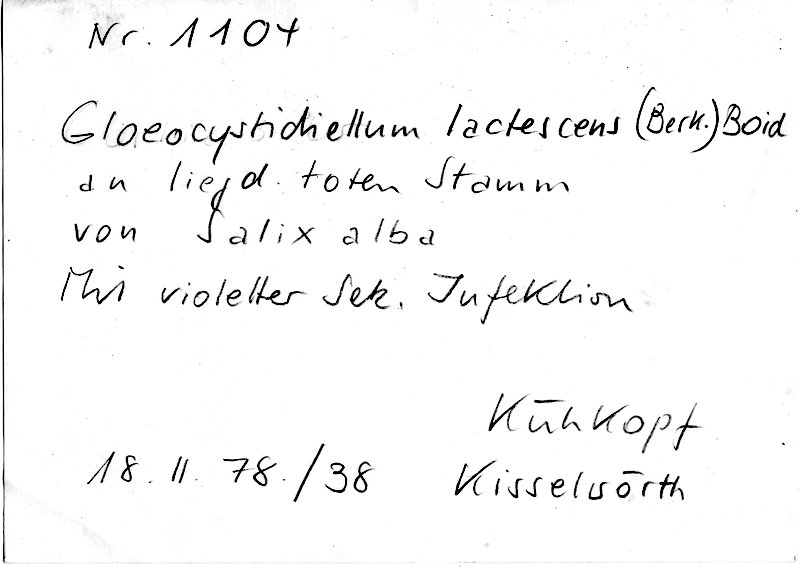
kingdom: Fungi
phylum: Basidiomycota
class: Agaricomycetes
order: Russulales
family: Peniophoraceae
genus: Gloiothele
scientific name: Gloiothele lactescens
